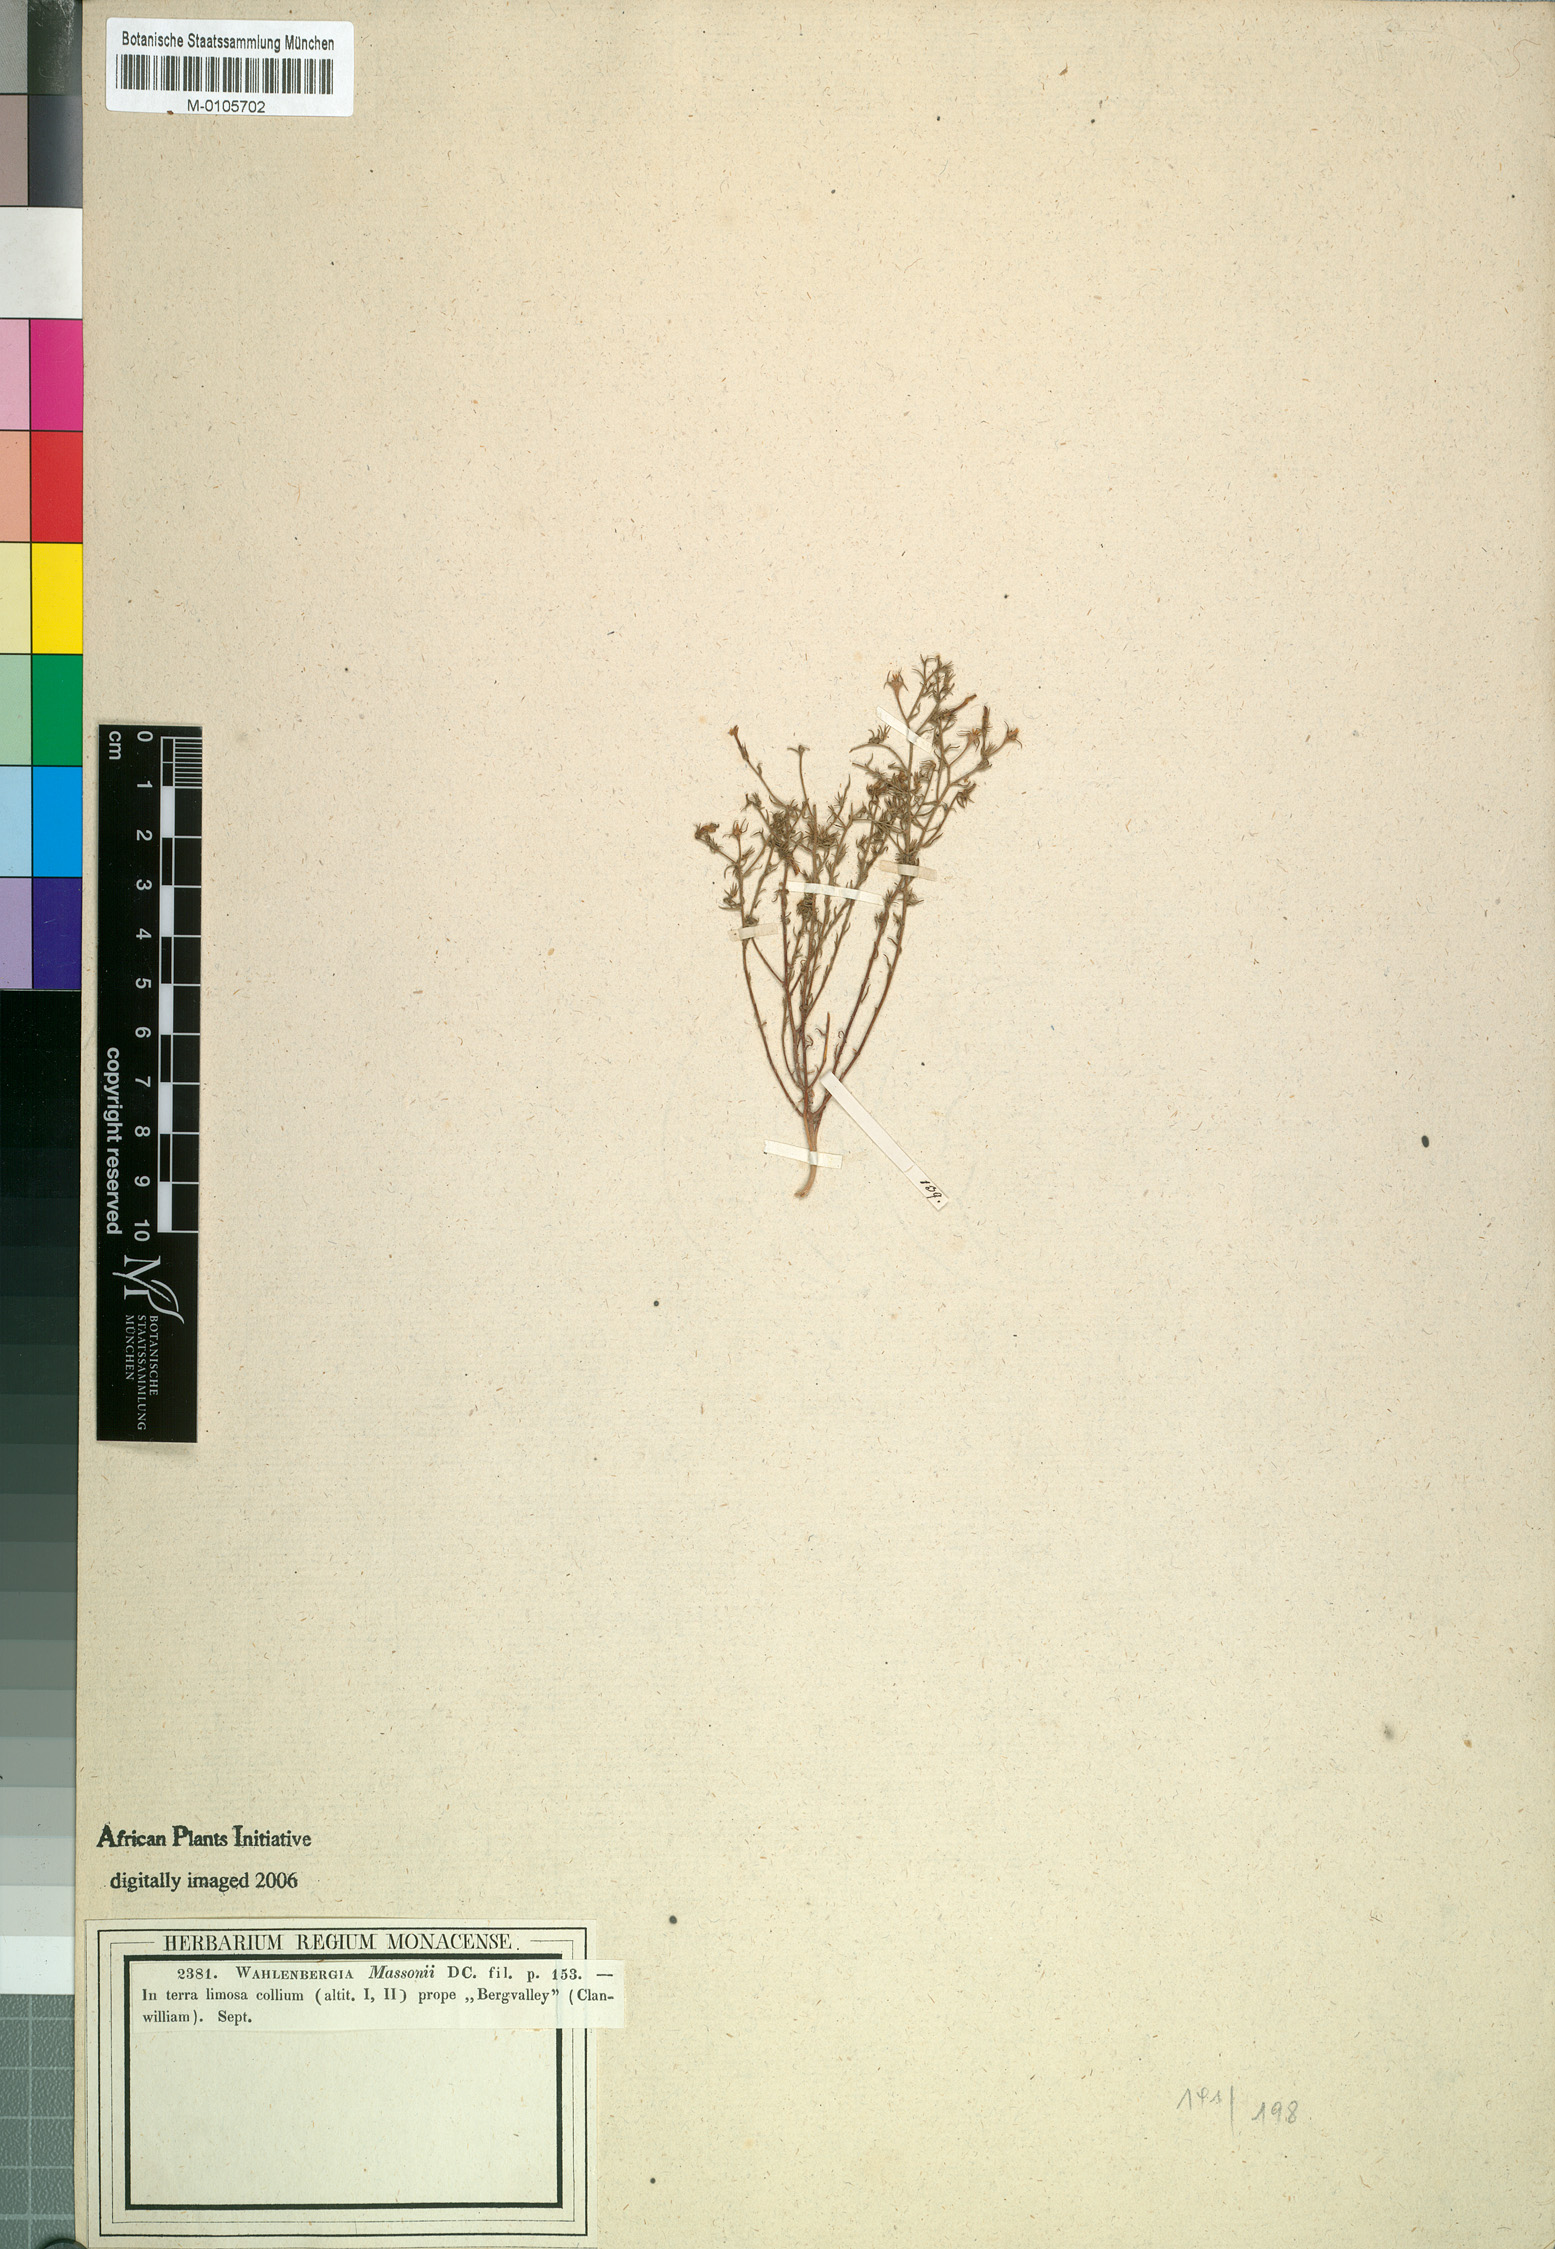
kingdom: Plantae
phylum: Tracheophyta
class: Magnoliopsida
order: Asterales
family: Campanulaceae
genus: Wahlenbergia
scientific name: Wahlenbergia paniculata
